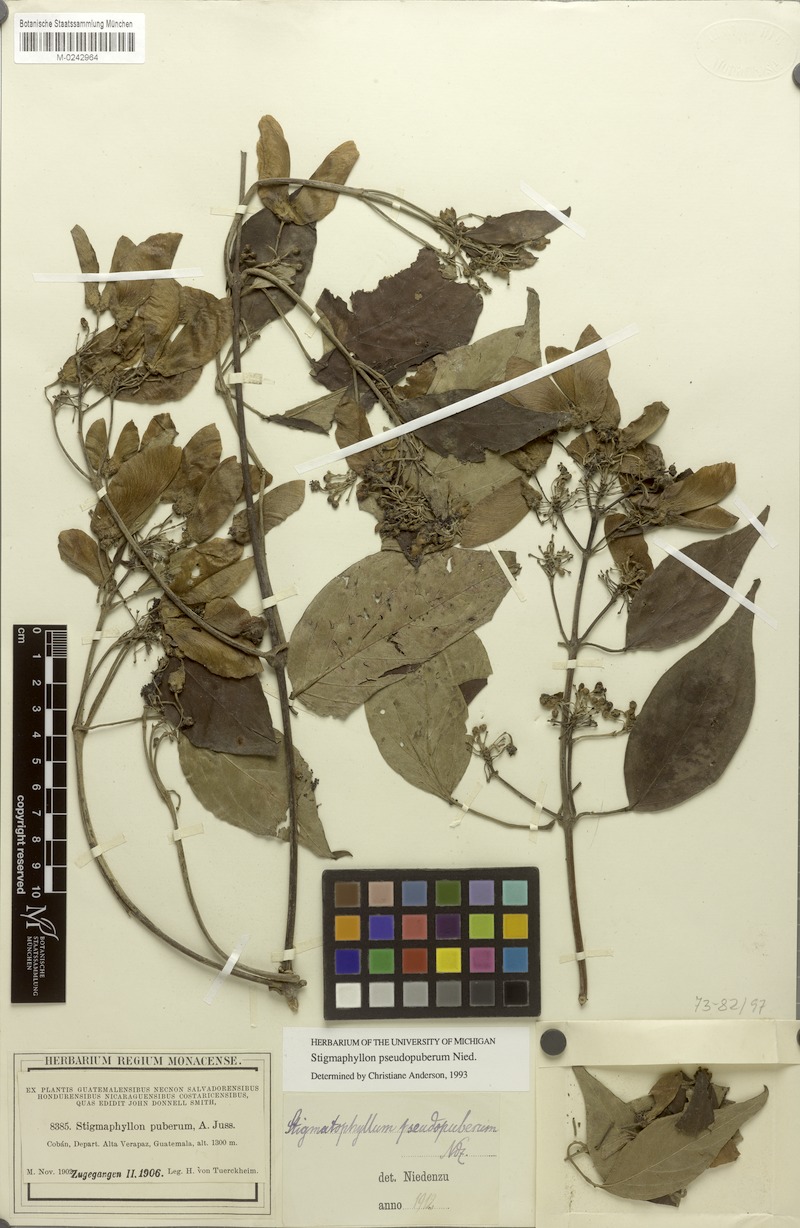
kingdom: Plantae
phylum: Tracheophyta
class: Magnoliopsida
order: Malpighiales
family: Malpighiaceae
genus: Stigmaphyllon
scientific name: Stigmaphyllon pseudopuberum
